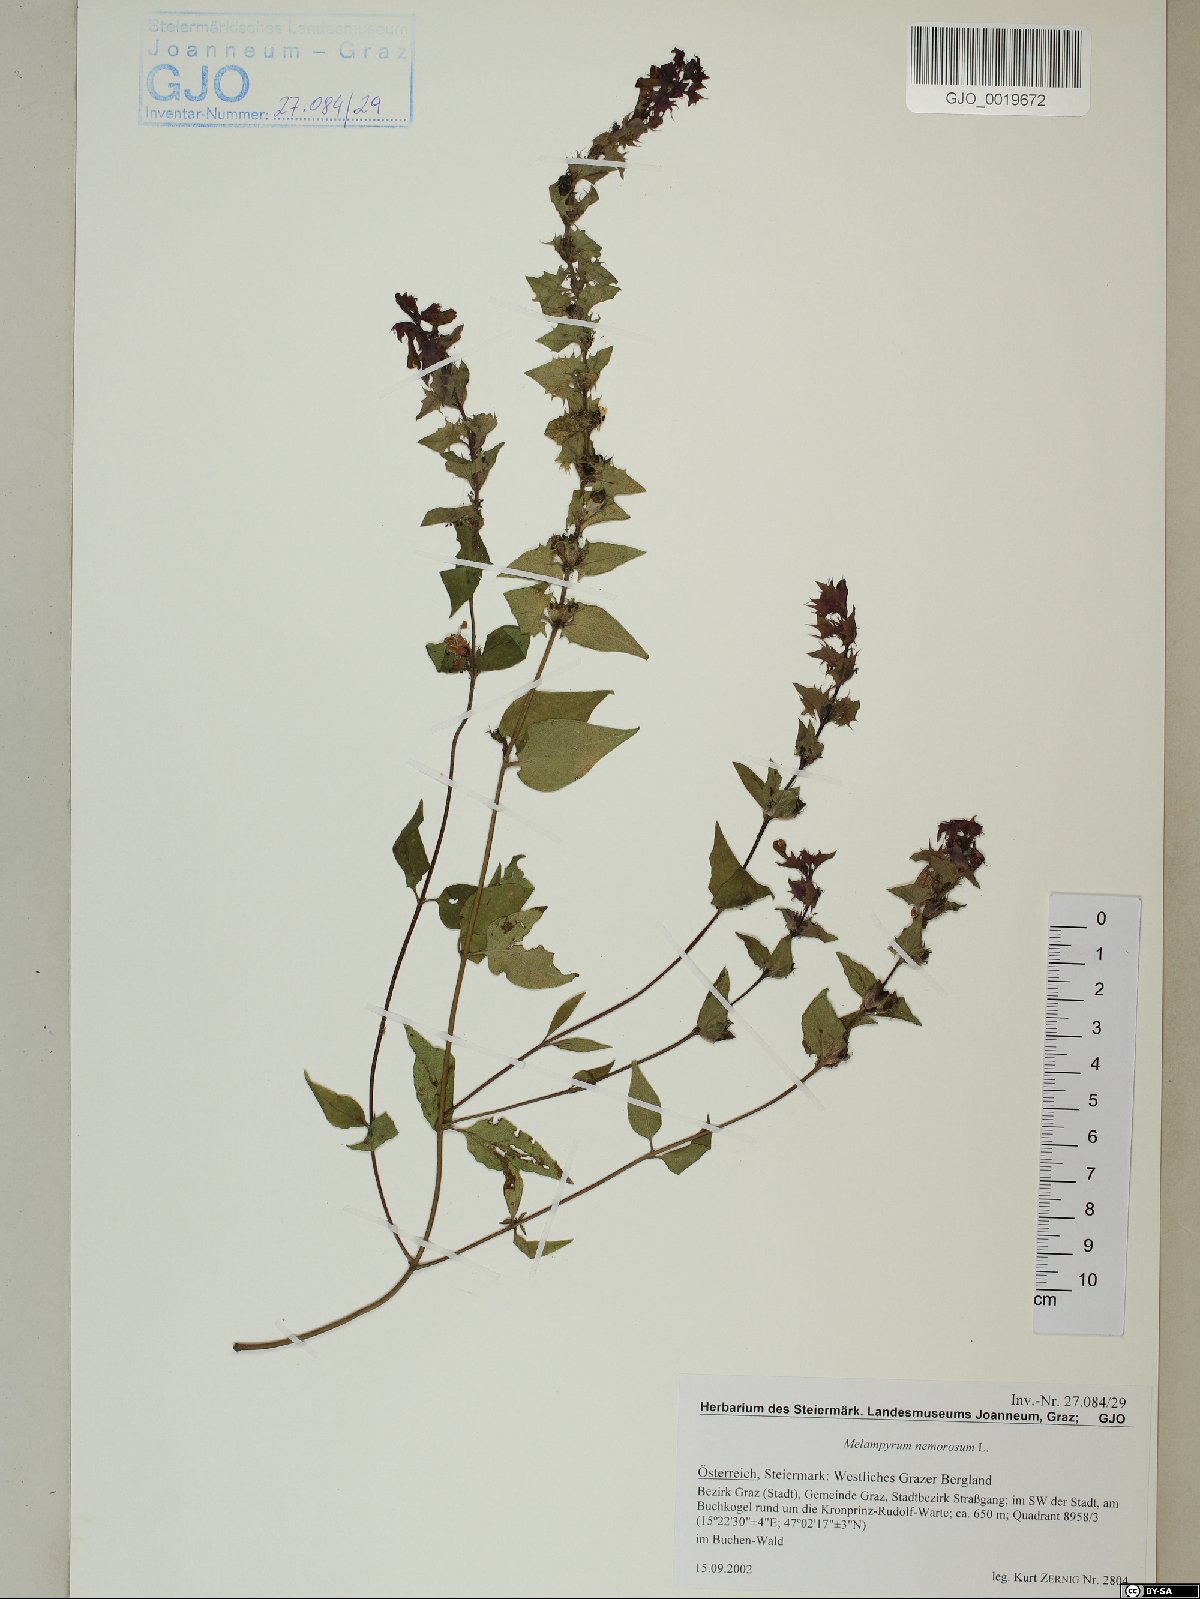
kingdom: Plantae
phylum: Tracheophyta
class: Magnoliopsida
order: Lamiales
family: Orobanchaceae
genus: Melampyrum
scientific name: Melampyrum nemorosum
